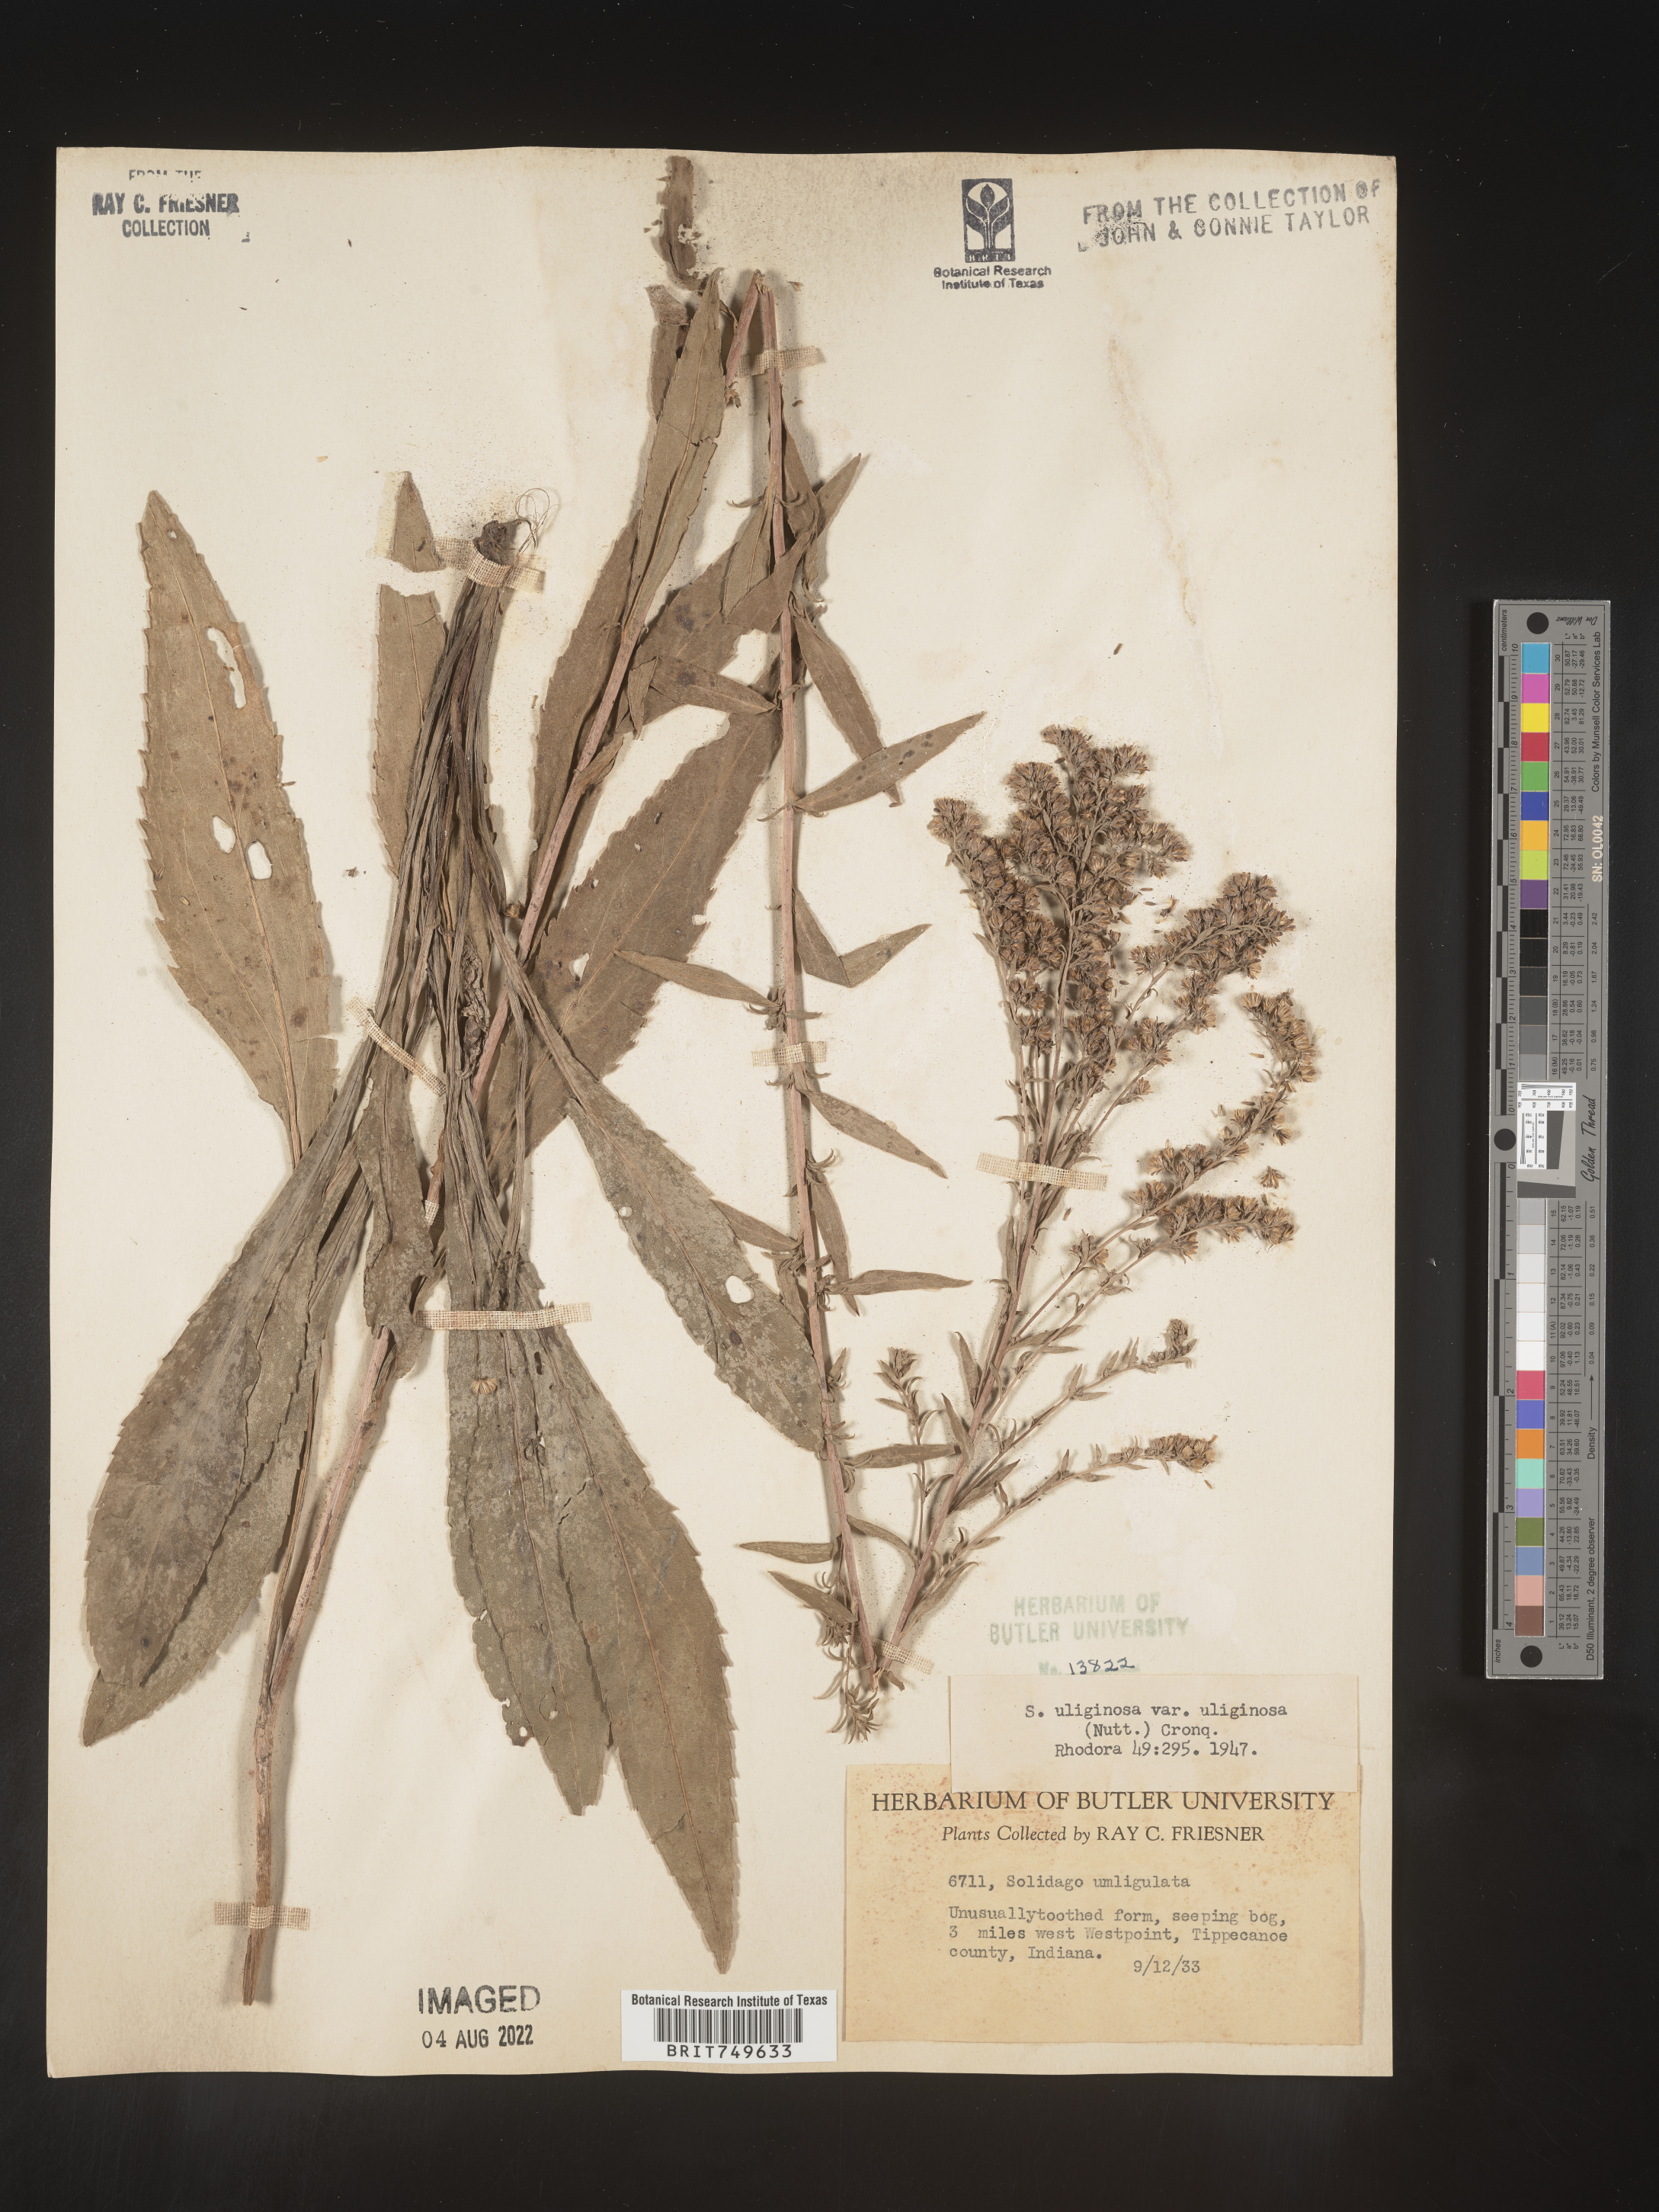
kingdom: Plantae
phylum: Tracheophyta
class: Magnoliopsida
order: Asterales
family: Asteraceae
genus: Solidago
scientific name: Solidago uliginosa
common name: Bog goldenrod
